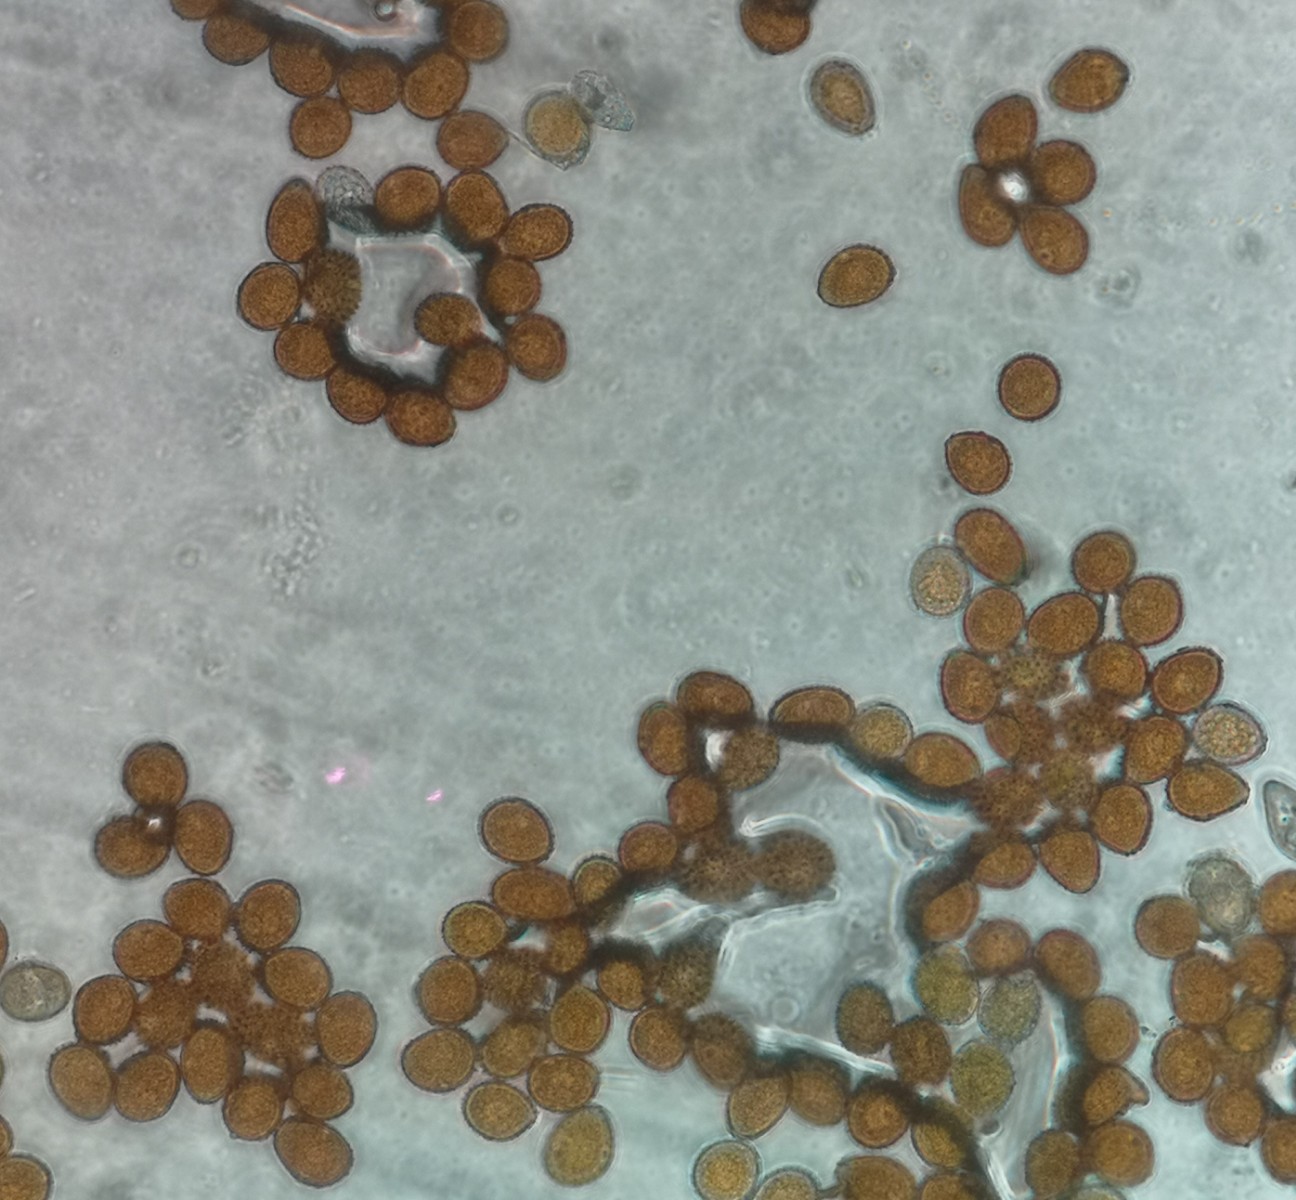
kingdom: Fungi
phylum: Basidiomycota
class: Pucciniomycetes
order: Pucciniales
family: Pucciniaceae
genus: Uromyces
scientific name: Uromyces genistae
